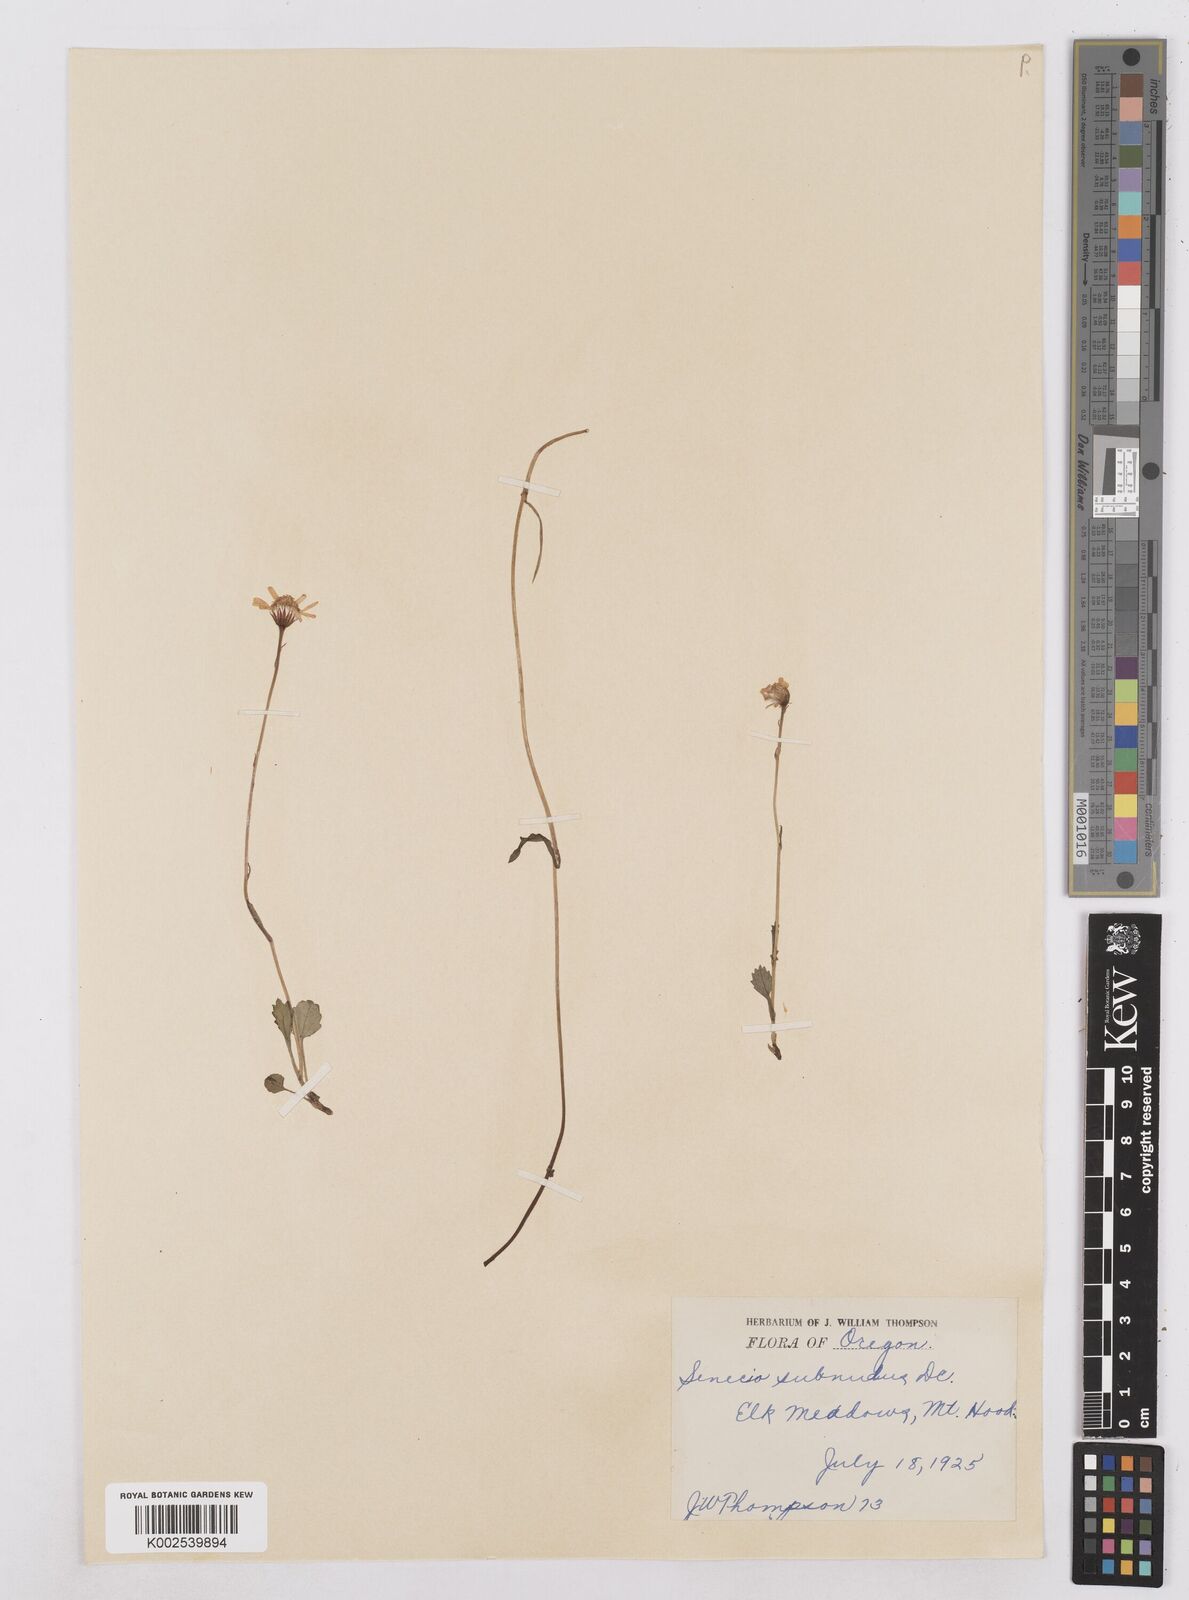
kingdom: Plantae
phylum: Tracheophyta
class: Magnoliopsida
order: Asterales
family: Asteraceae
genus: Packera
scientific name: Packera aurea
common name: Golden groundsel
